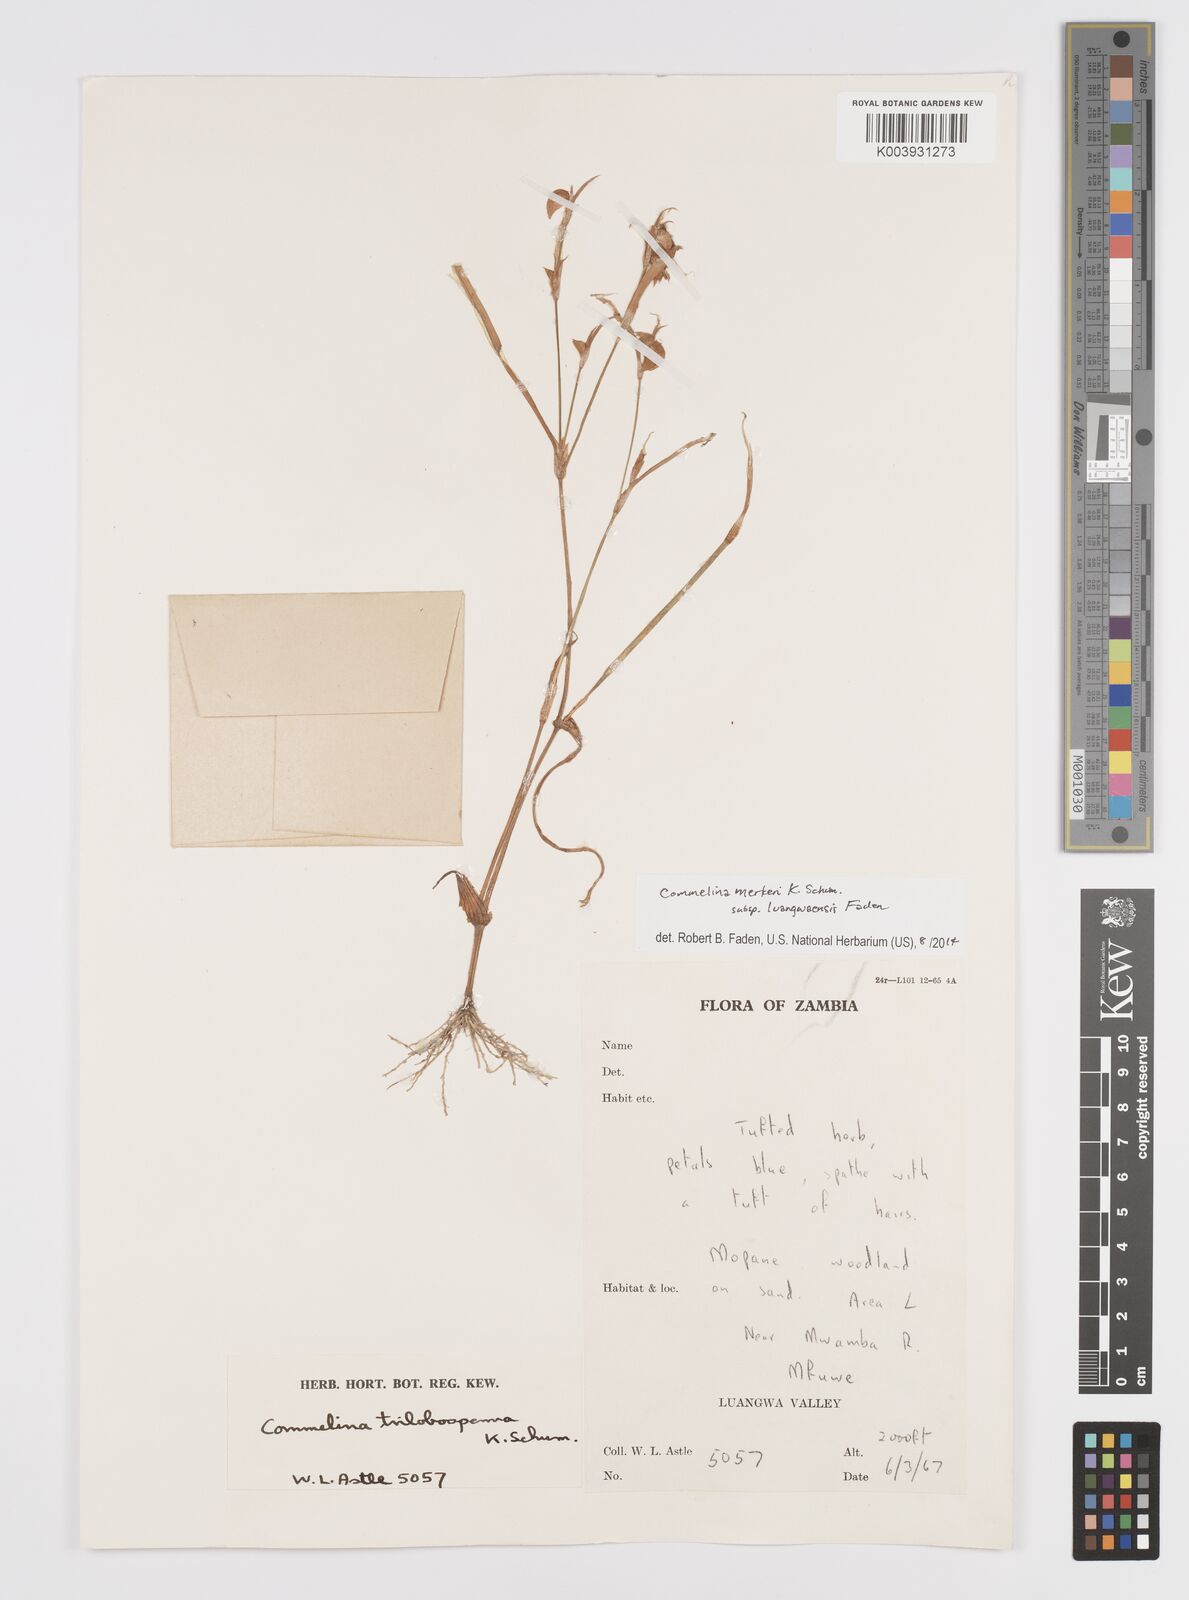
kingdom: Plantae
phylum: Tracheophyta
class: Liliopsida
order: Commelinales
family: Commelinaceae
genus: Commelina
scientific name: Commelina merkeri
